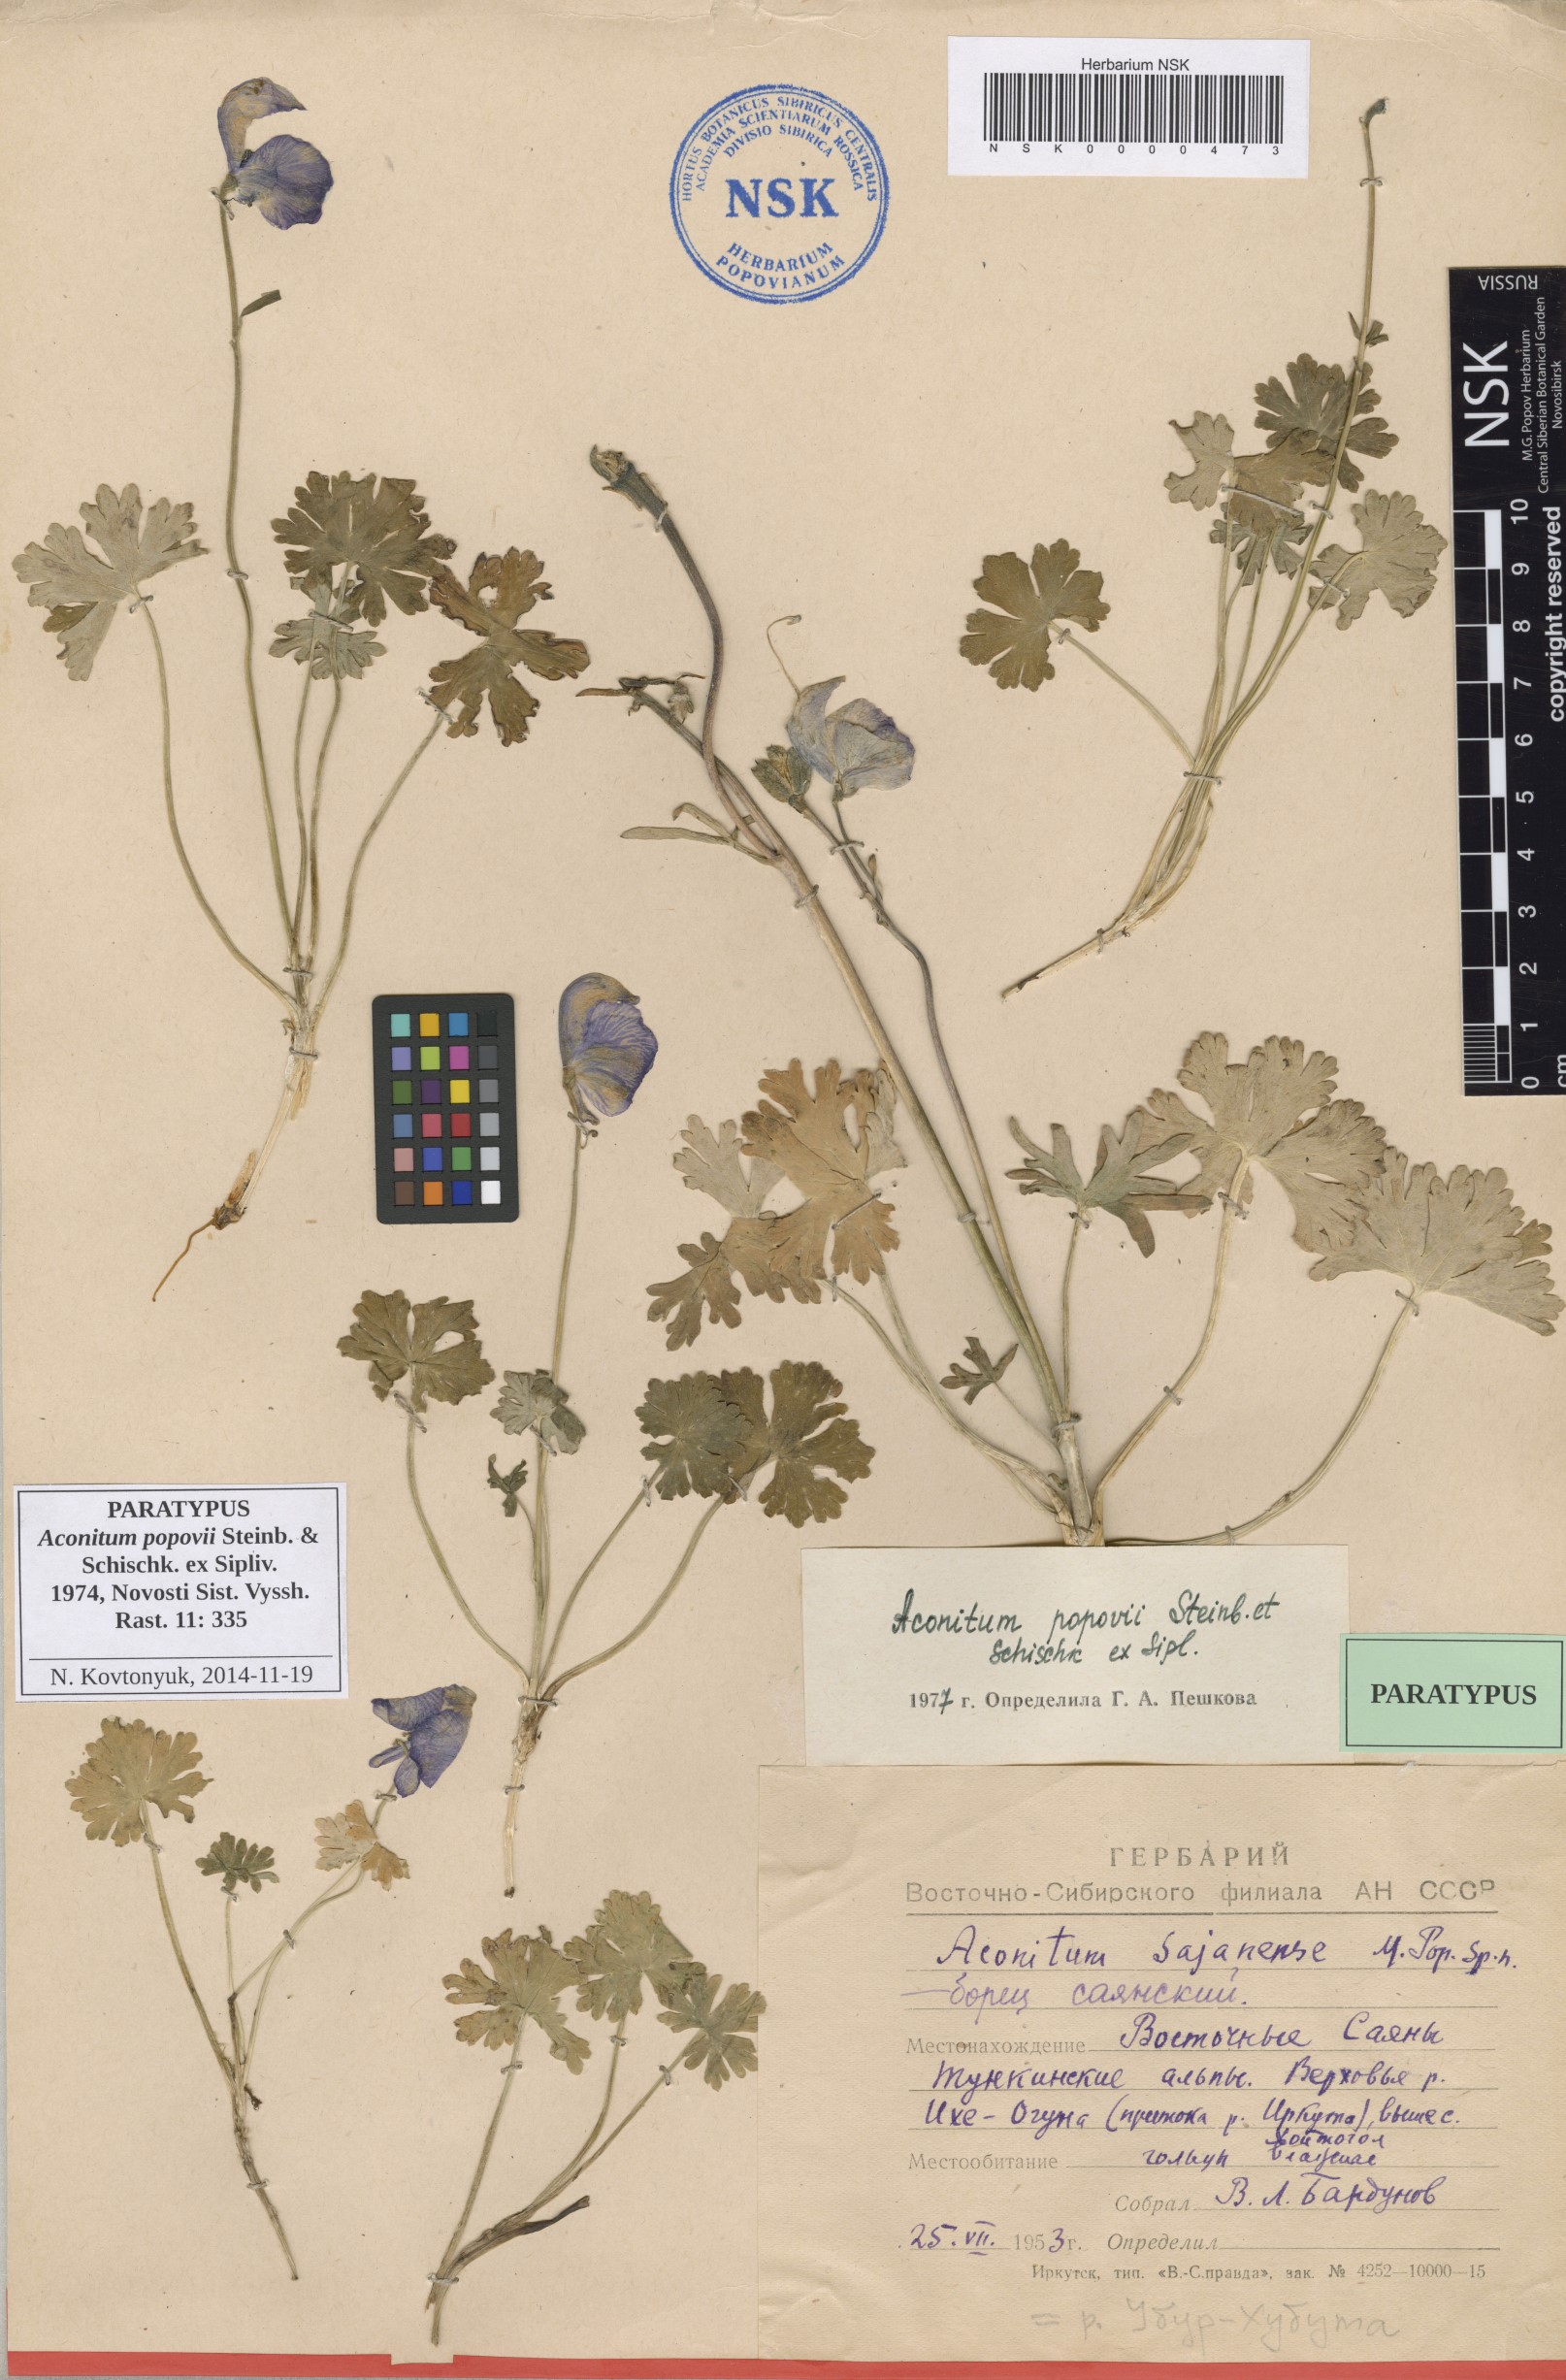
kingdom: Plantae
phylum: Tracheophyta
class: Magnoliopsida
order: Ranunculales
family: Ranunculaceae
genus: Aconitum
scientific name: Aconitum tanguticum
